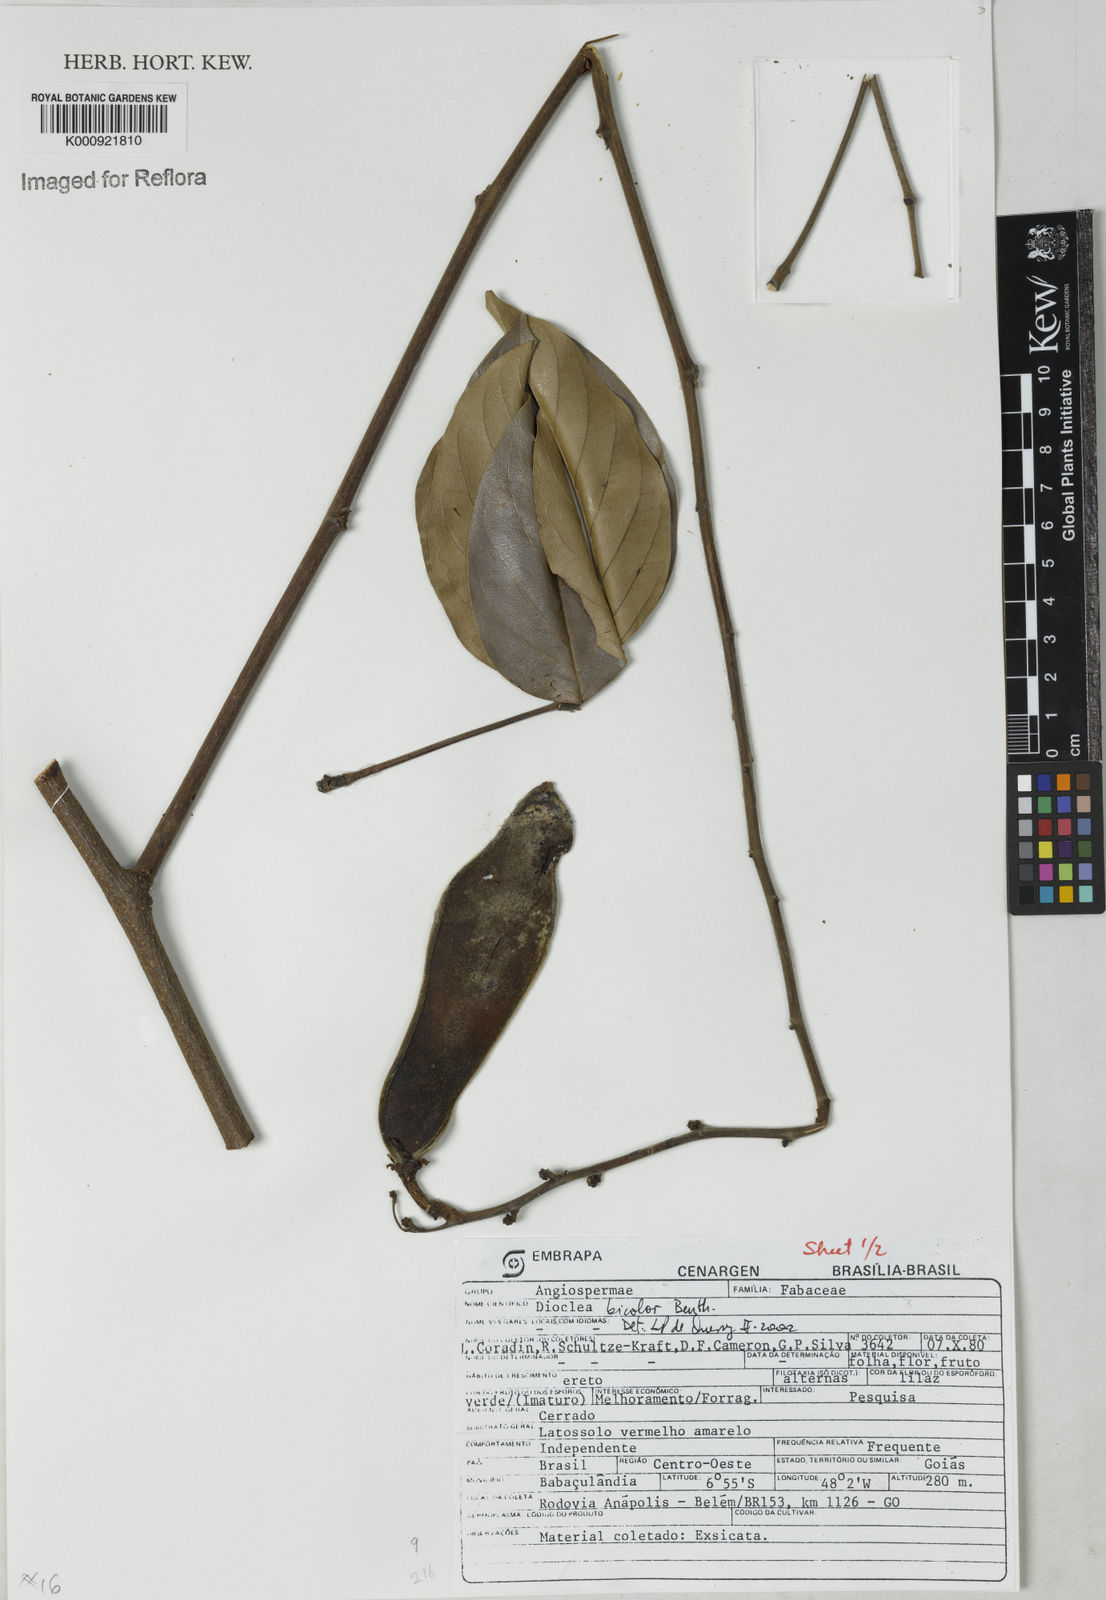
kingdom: Plantae
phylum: Tracheophyta
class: Magnoliopsida
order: Fabales
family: Fabaceae
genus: Macropsychanthus
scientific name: Macropsychanthus bicolor
